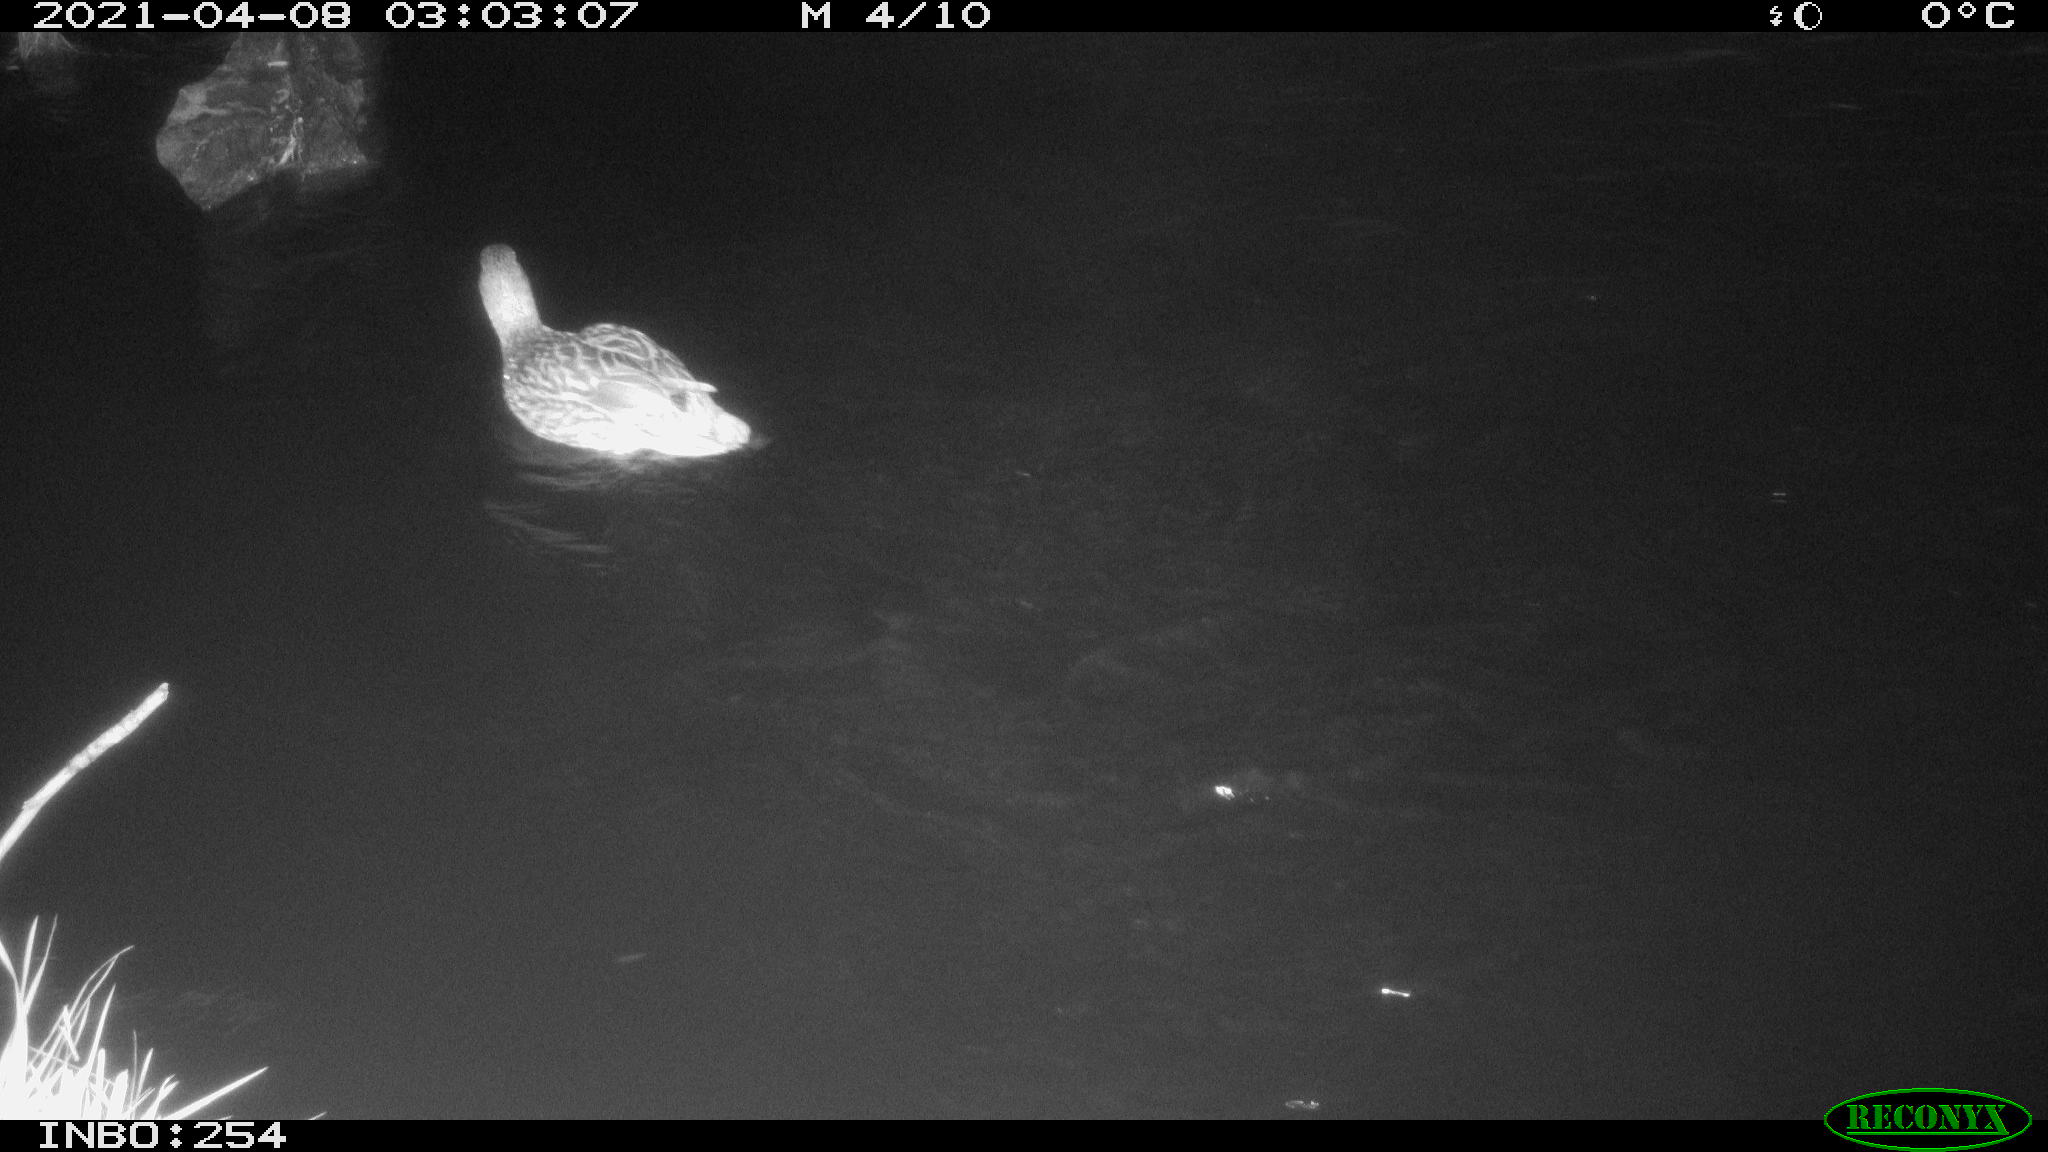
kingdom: Animalia
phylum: Chordata
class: Aves
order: Anseriformes
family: Anatidae
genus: Anas
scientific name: Anas
